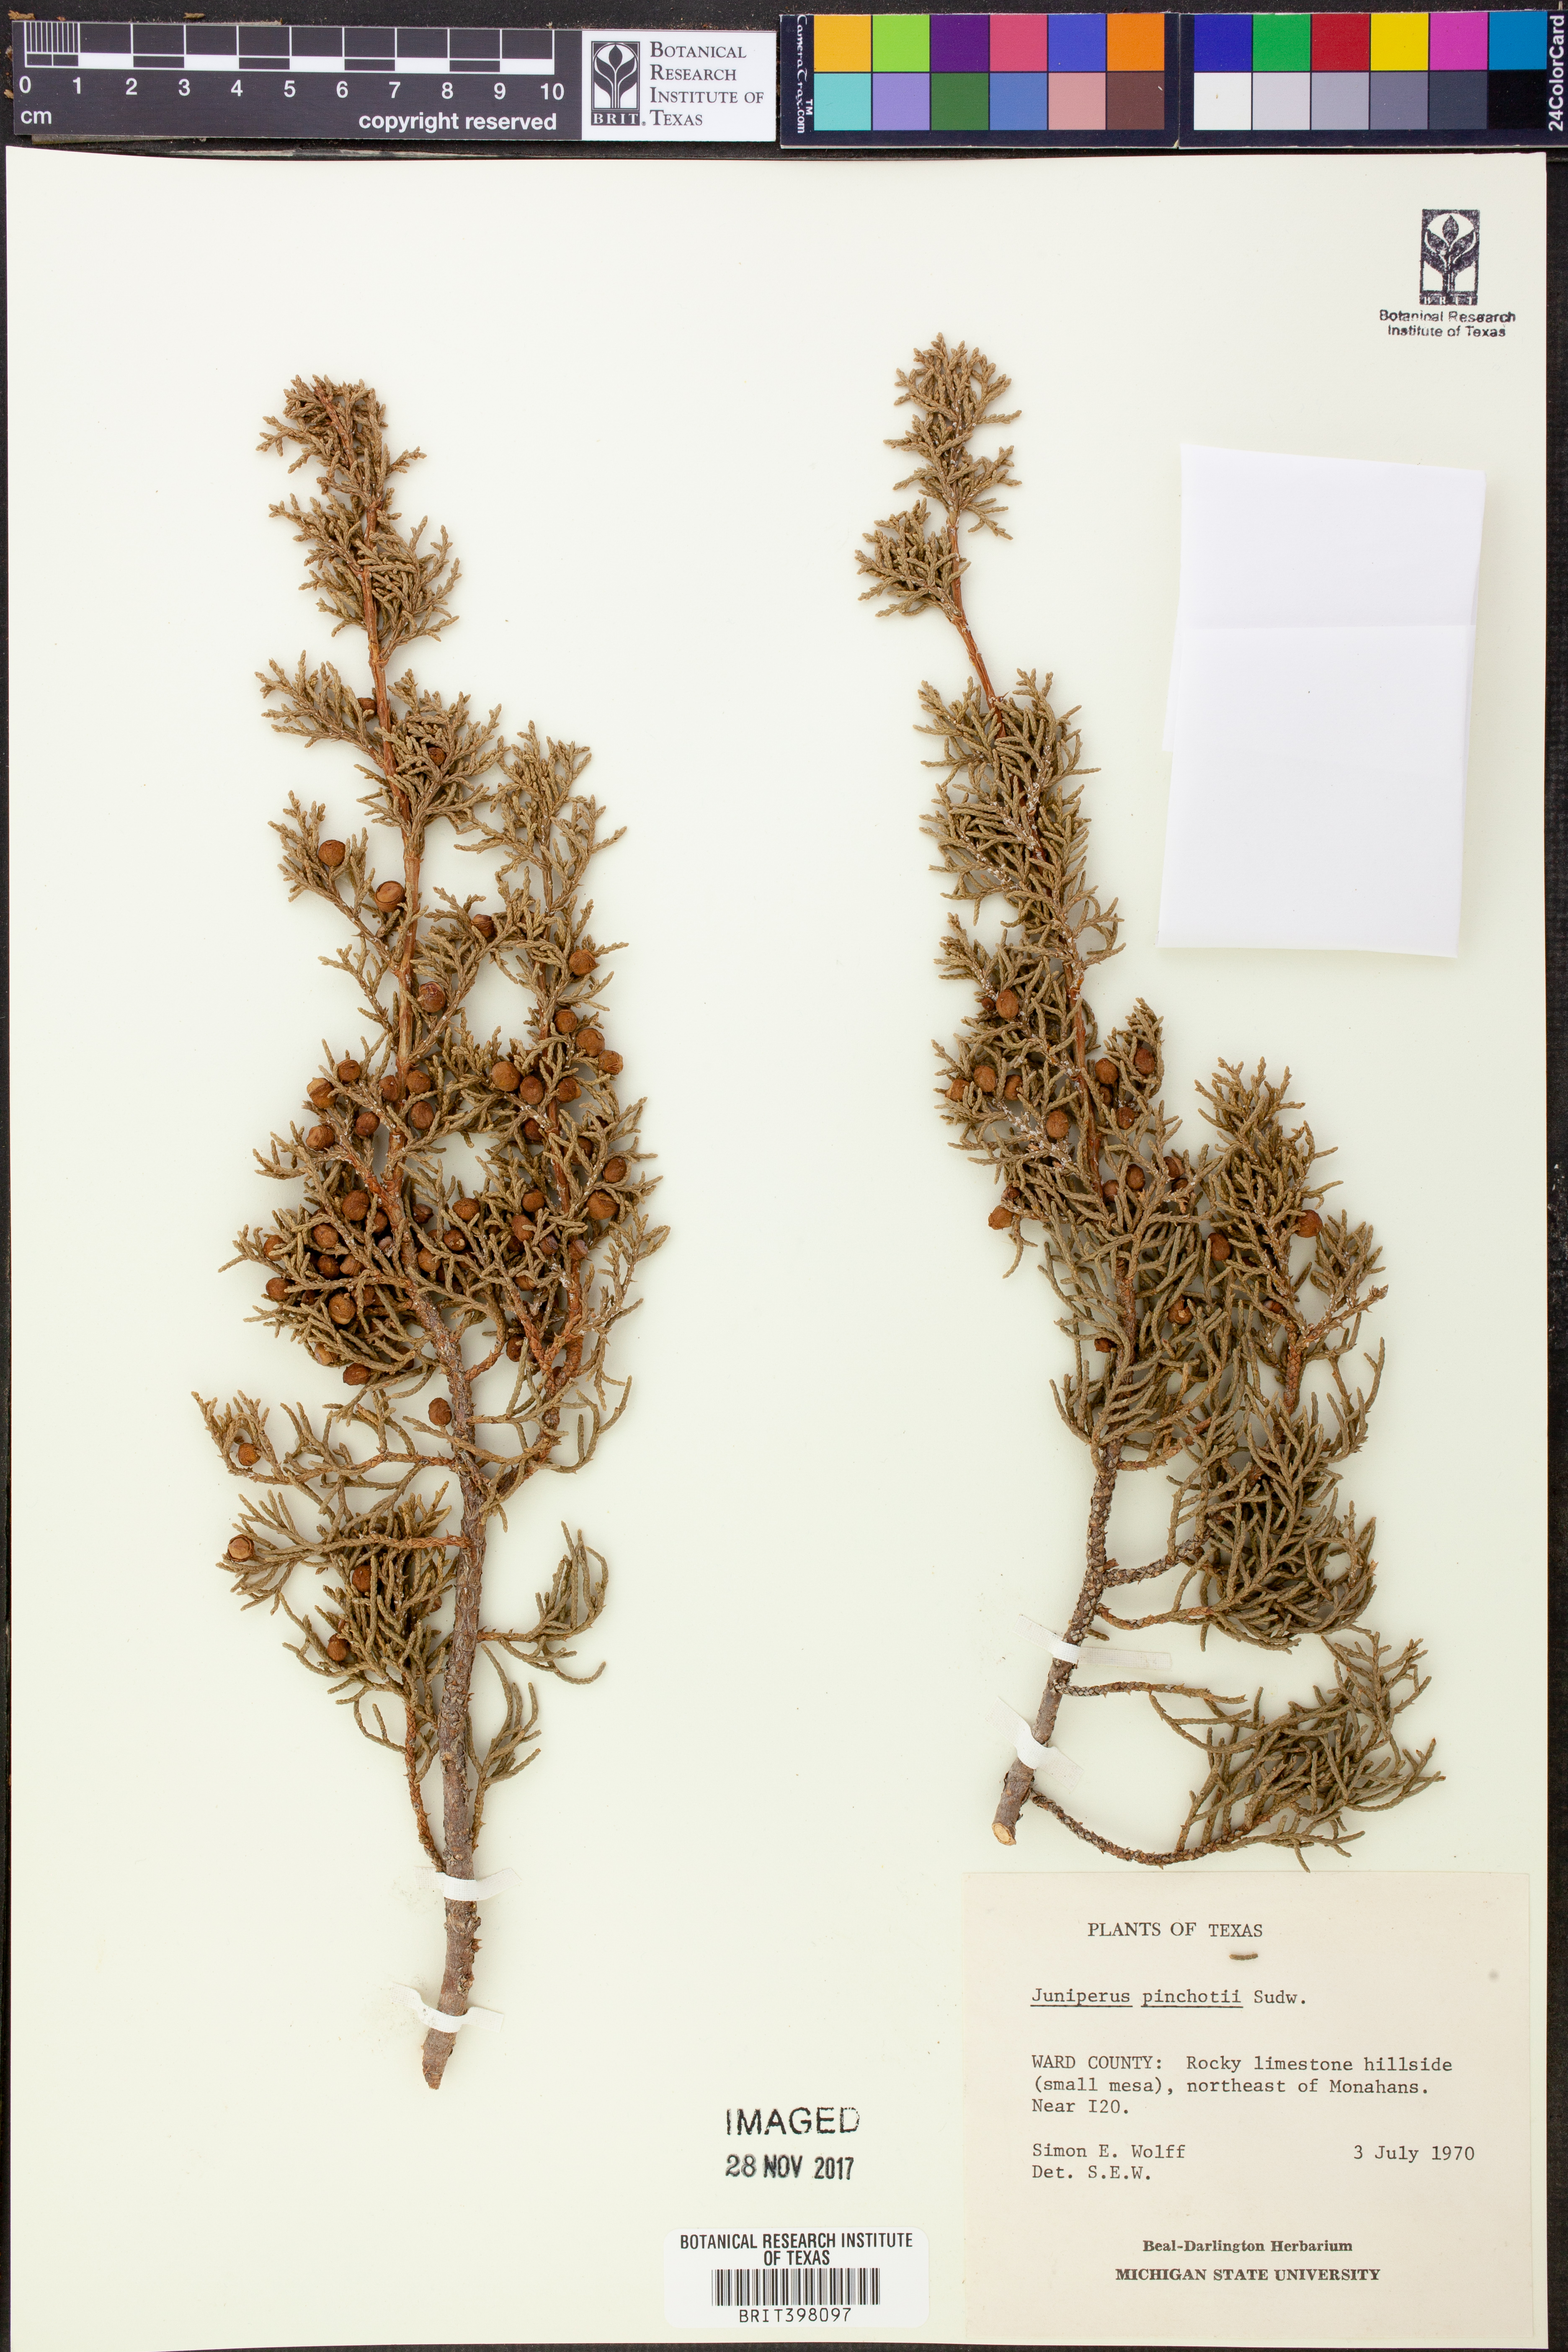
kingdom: Plantae
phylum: Tracheophyta
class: Pinopsida
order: Pinales
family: Cupressaceae
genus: Juniperus
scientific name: Juniperus pinchotii
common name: Pinchot juniper
